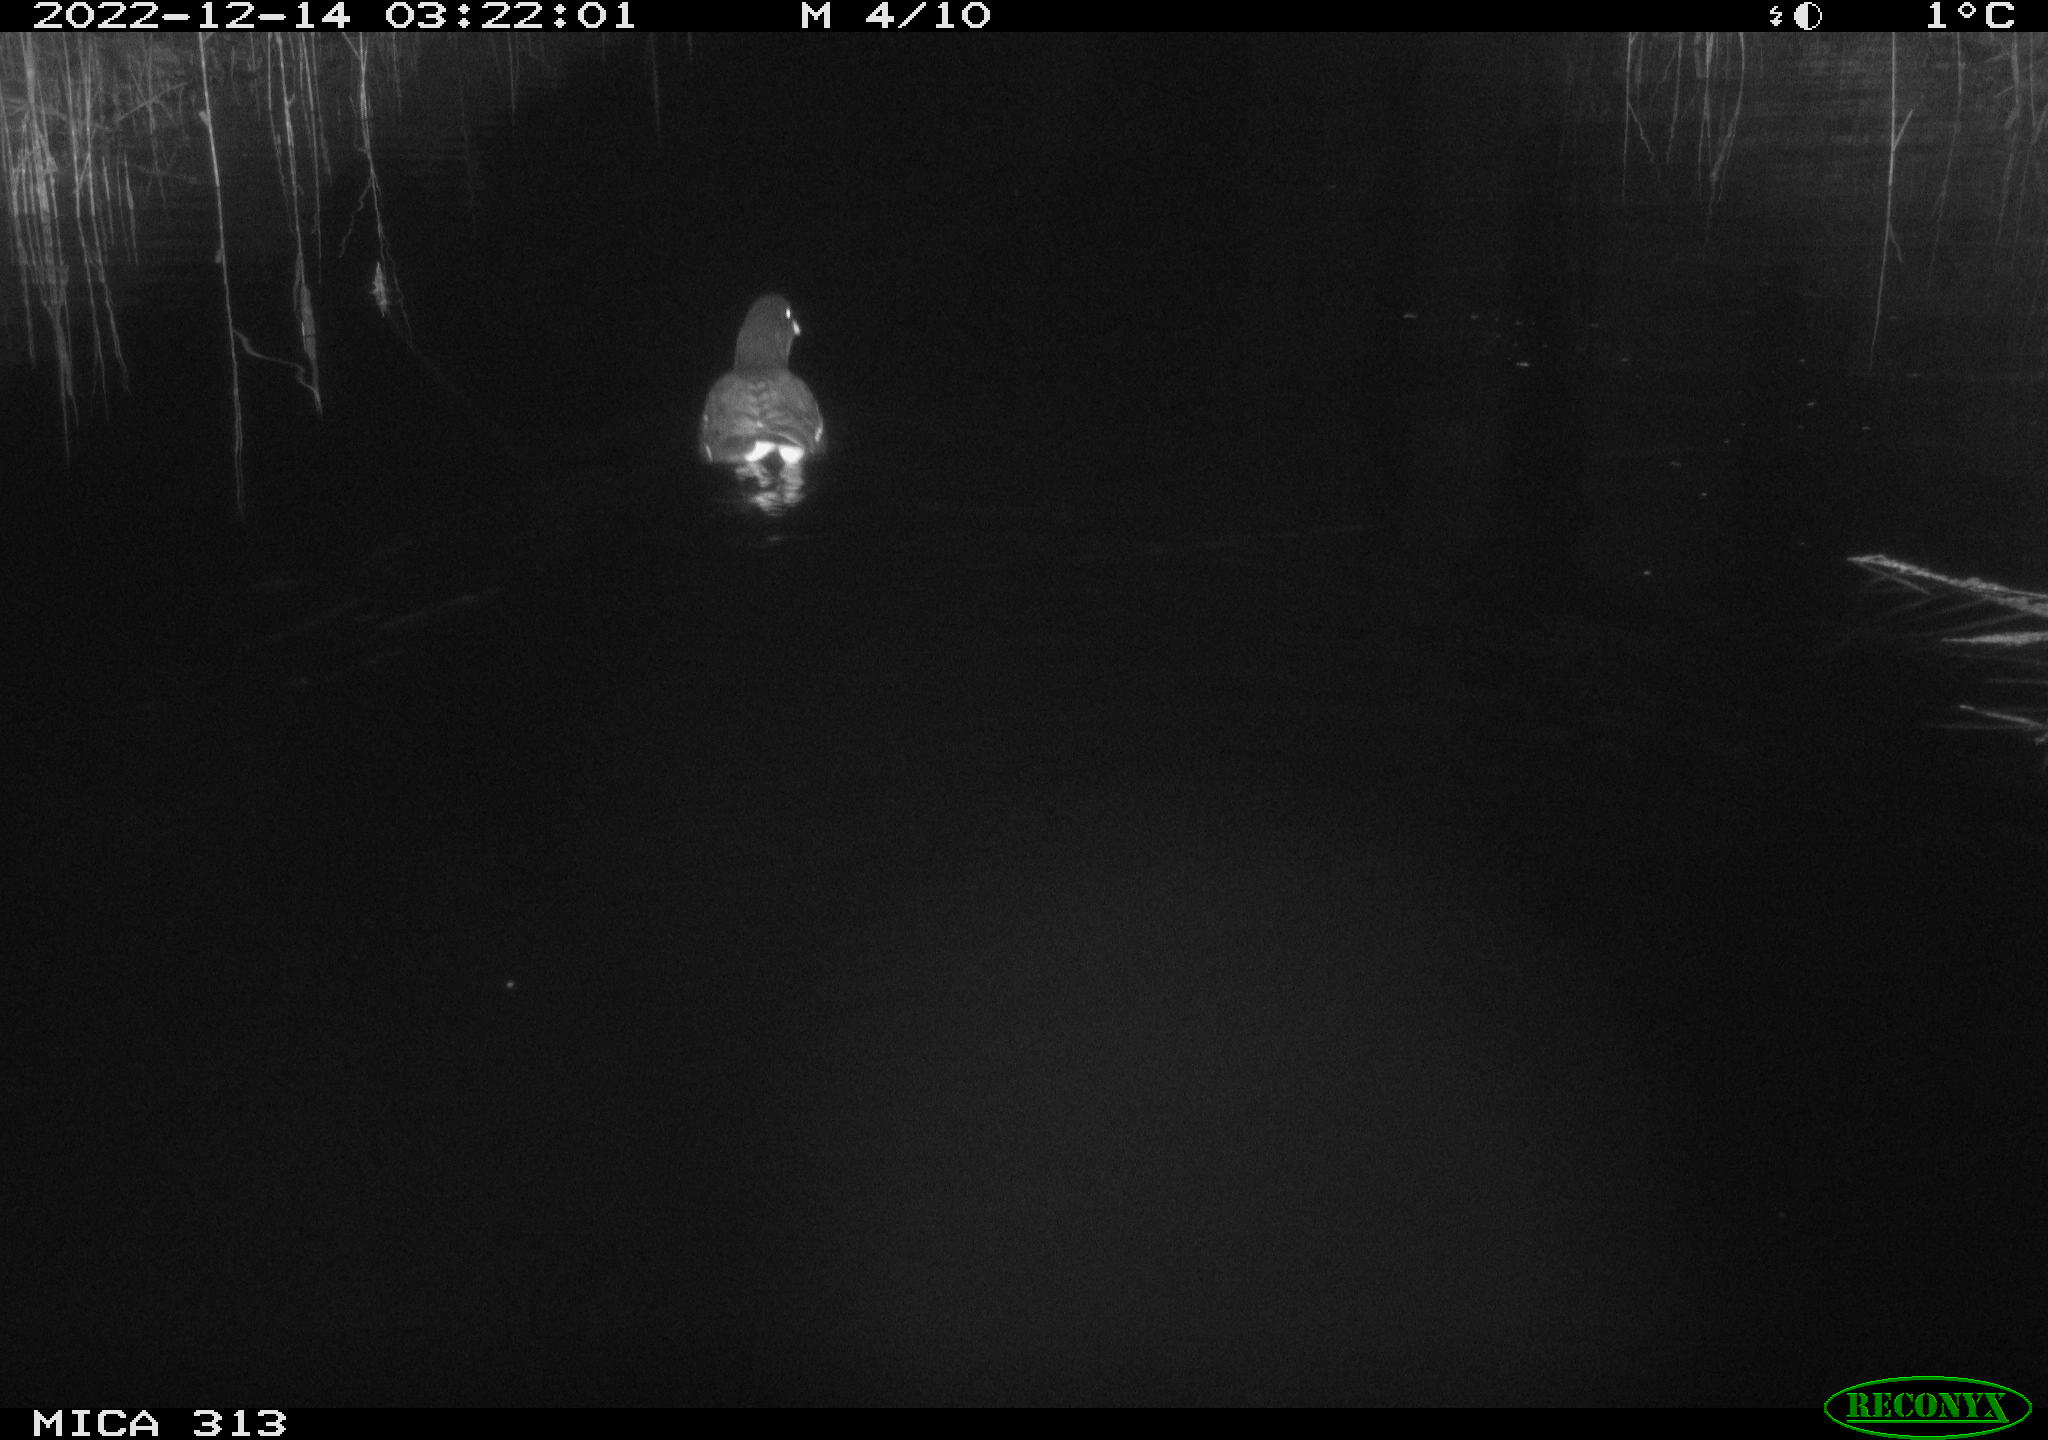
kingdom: Animalia
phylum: Chordata
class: Aves
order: Gruiformes
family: Rallidae
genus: Gallinula
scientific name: Gallinula chloropus
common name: Common moorhen
